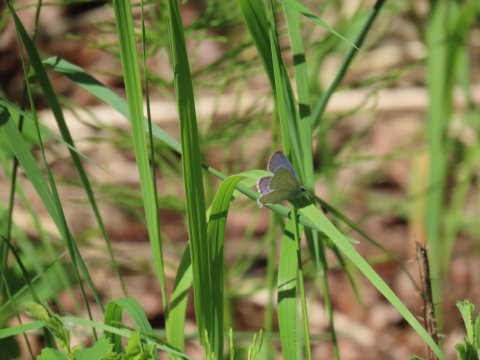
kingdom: Animalia
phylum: Arthropoda
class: Insecta
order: Lepidoptera
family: Lycaenidae
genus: Elkalyce
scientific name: Elkalyce amyntula
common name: Western Tailed-Blue
